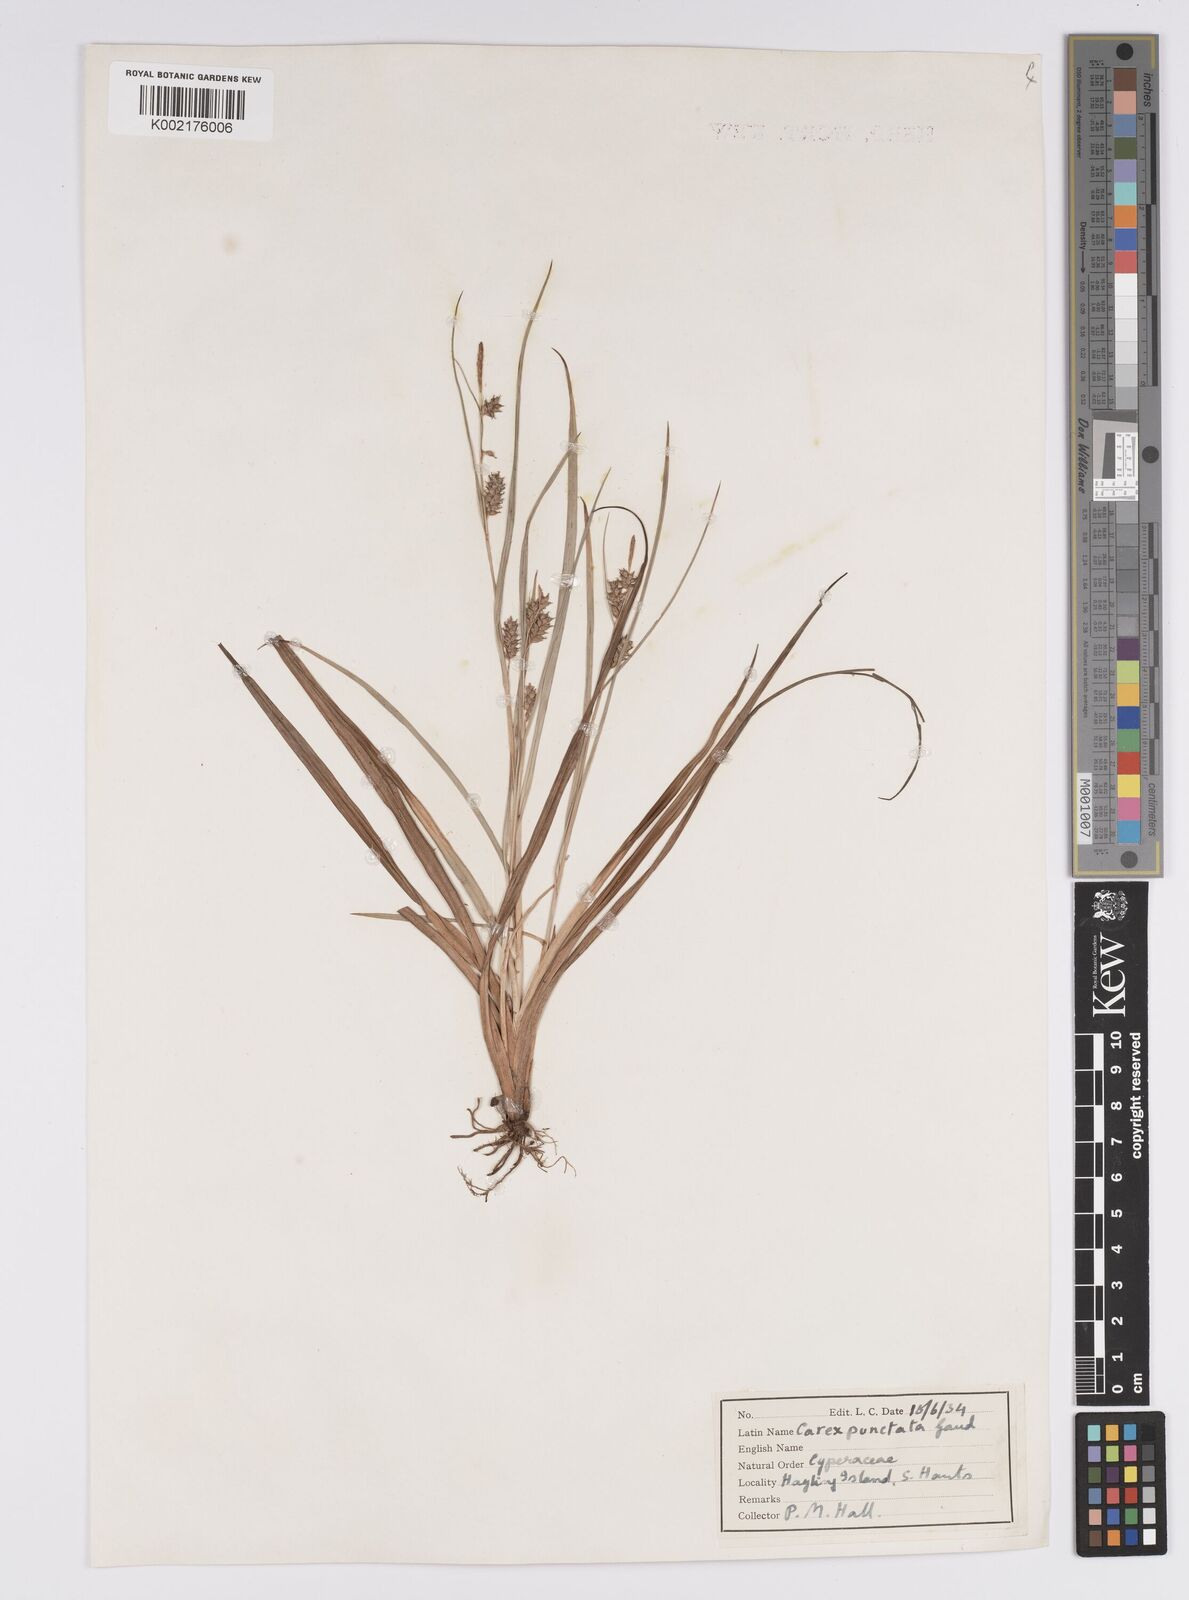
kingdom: Plantae
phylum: Tracheophyta
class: Liliopsida
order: Poales
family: Cyperaceae
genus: Carex
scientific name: Carex punctata
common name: Dotted sedge
